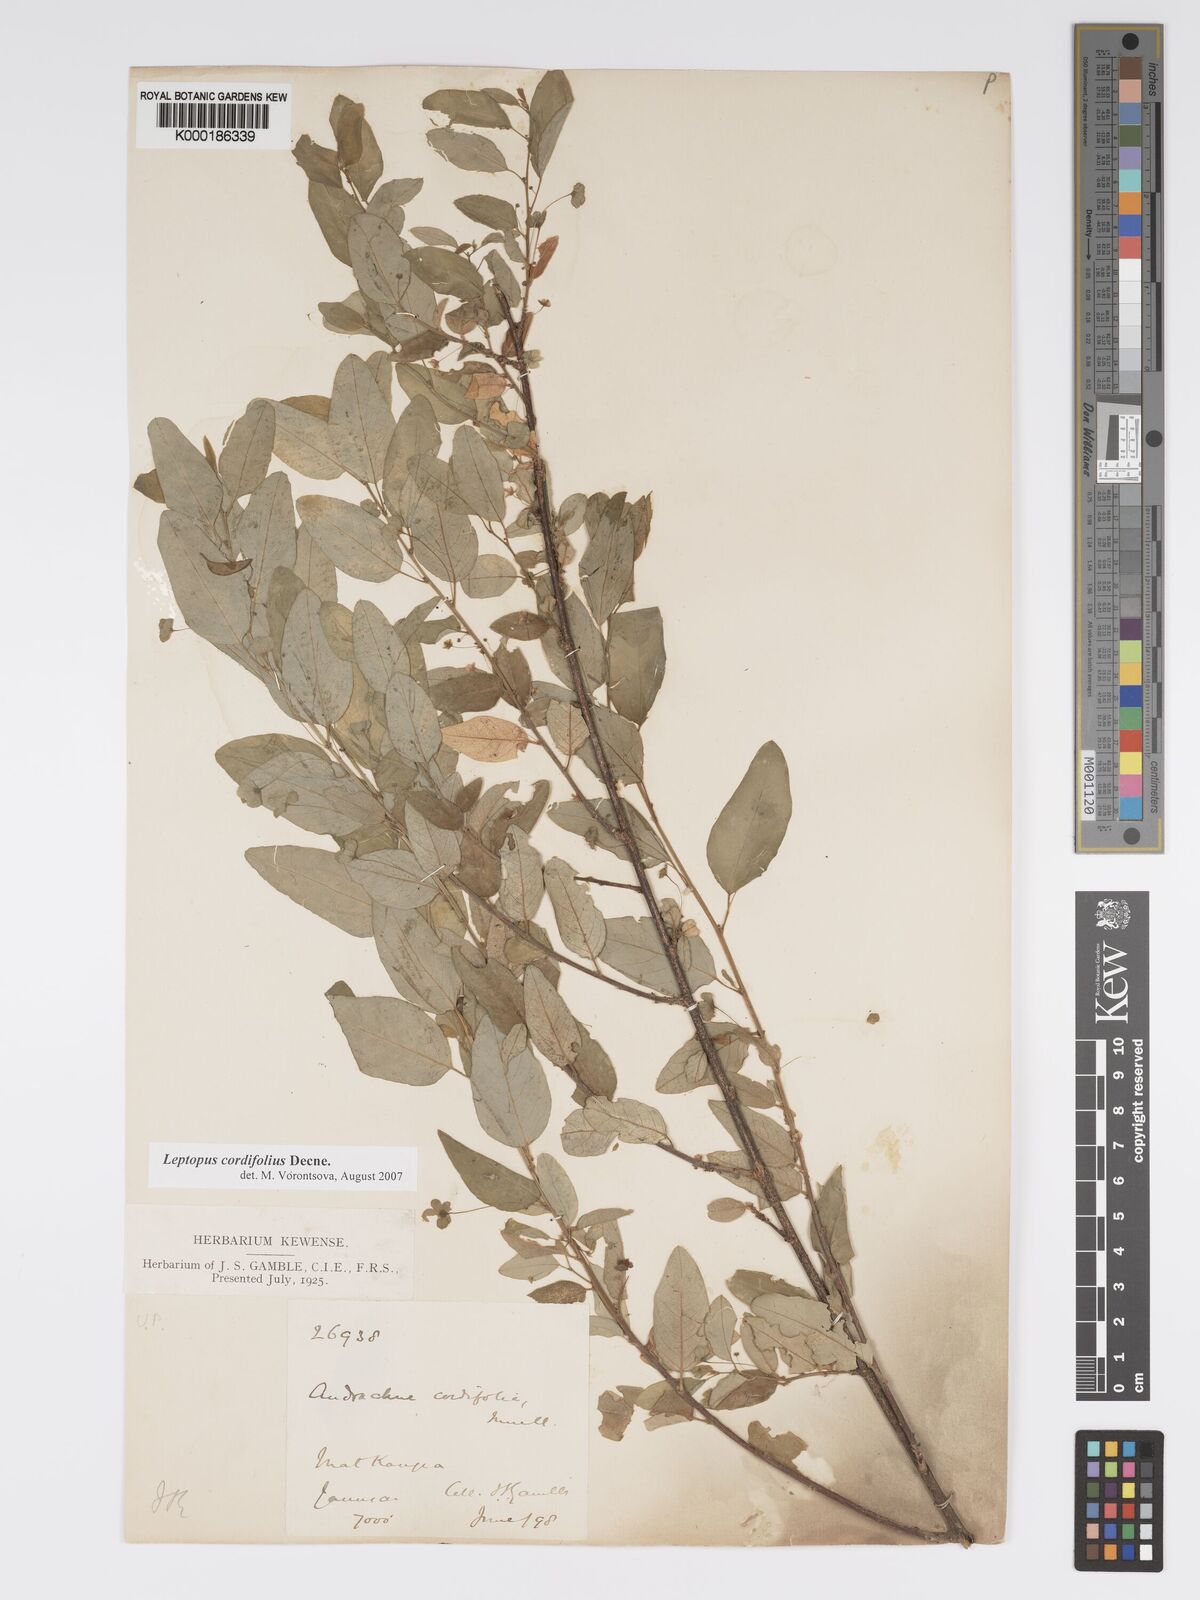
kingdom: Plantae
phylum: Tracheophyta
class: Magnoliopsida
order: Malpighiales
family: Phyllanthaceae
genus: Leptopus
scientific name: Leptopus cordifolius
